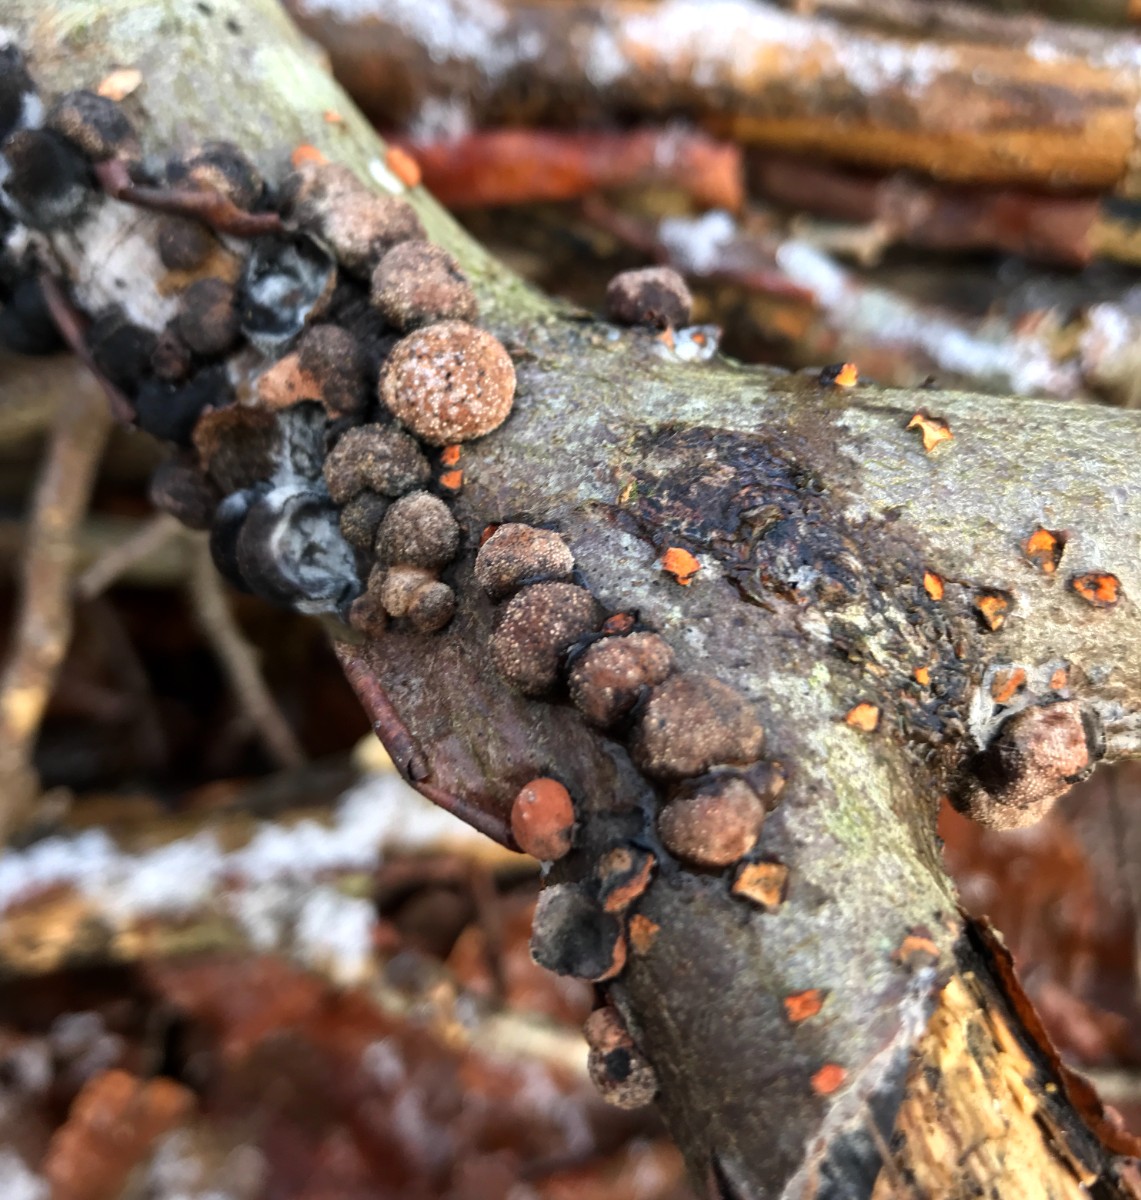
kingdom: Fungi
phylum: Ascomycota
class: Sordariomycetes
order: Xylariales
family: Hypoxylaceae
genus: Hypoxylon
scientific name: Hypoxylon fragiforme
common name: kuljordbær
